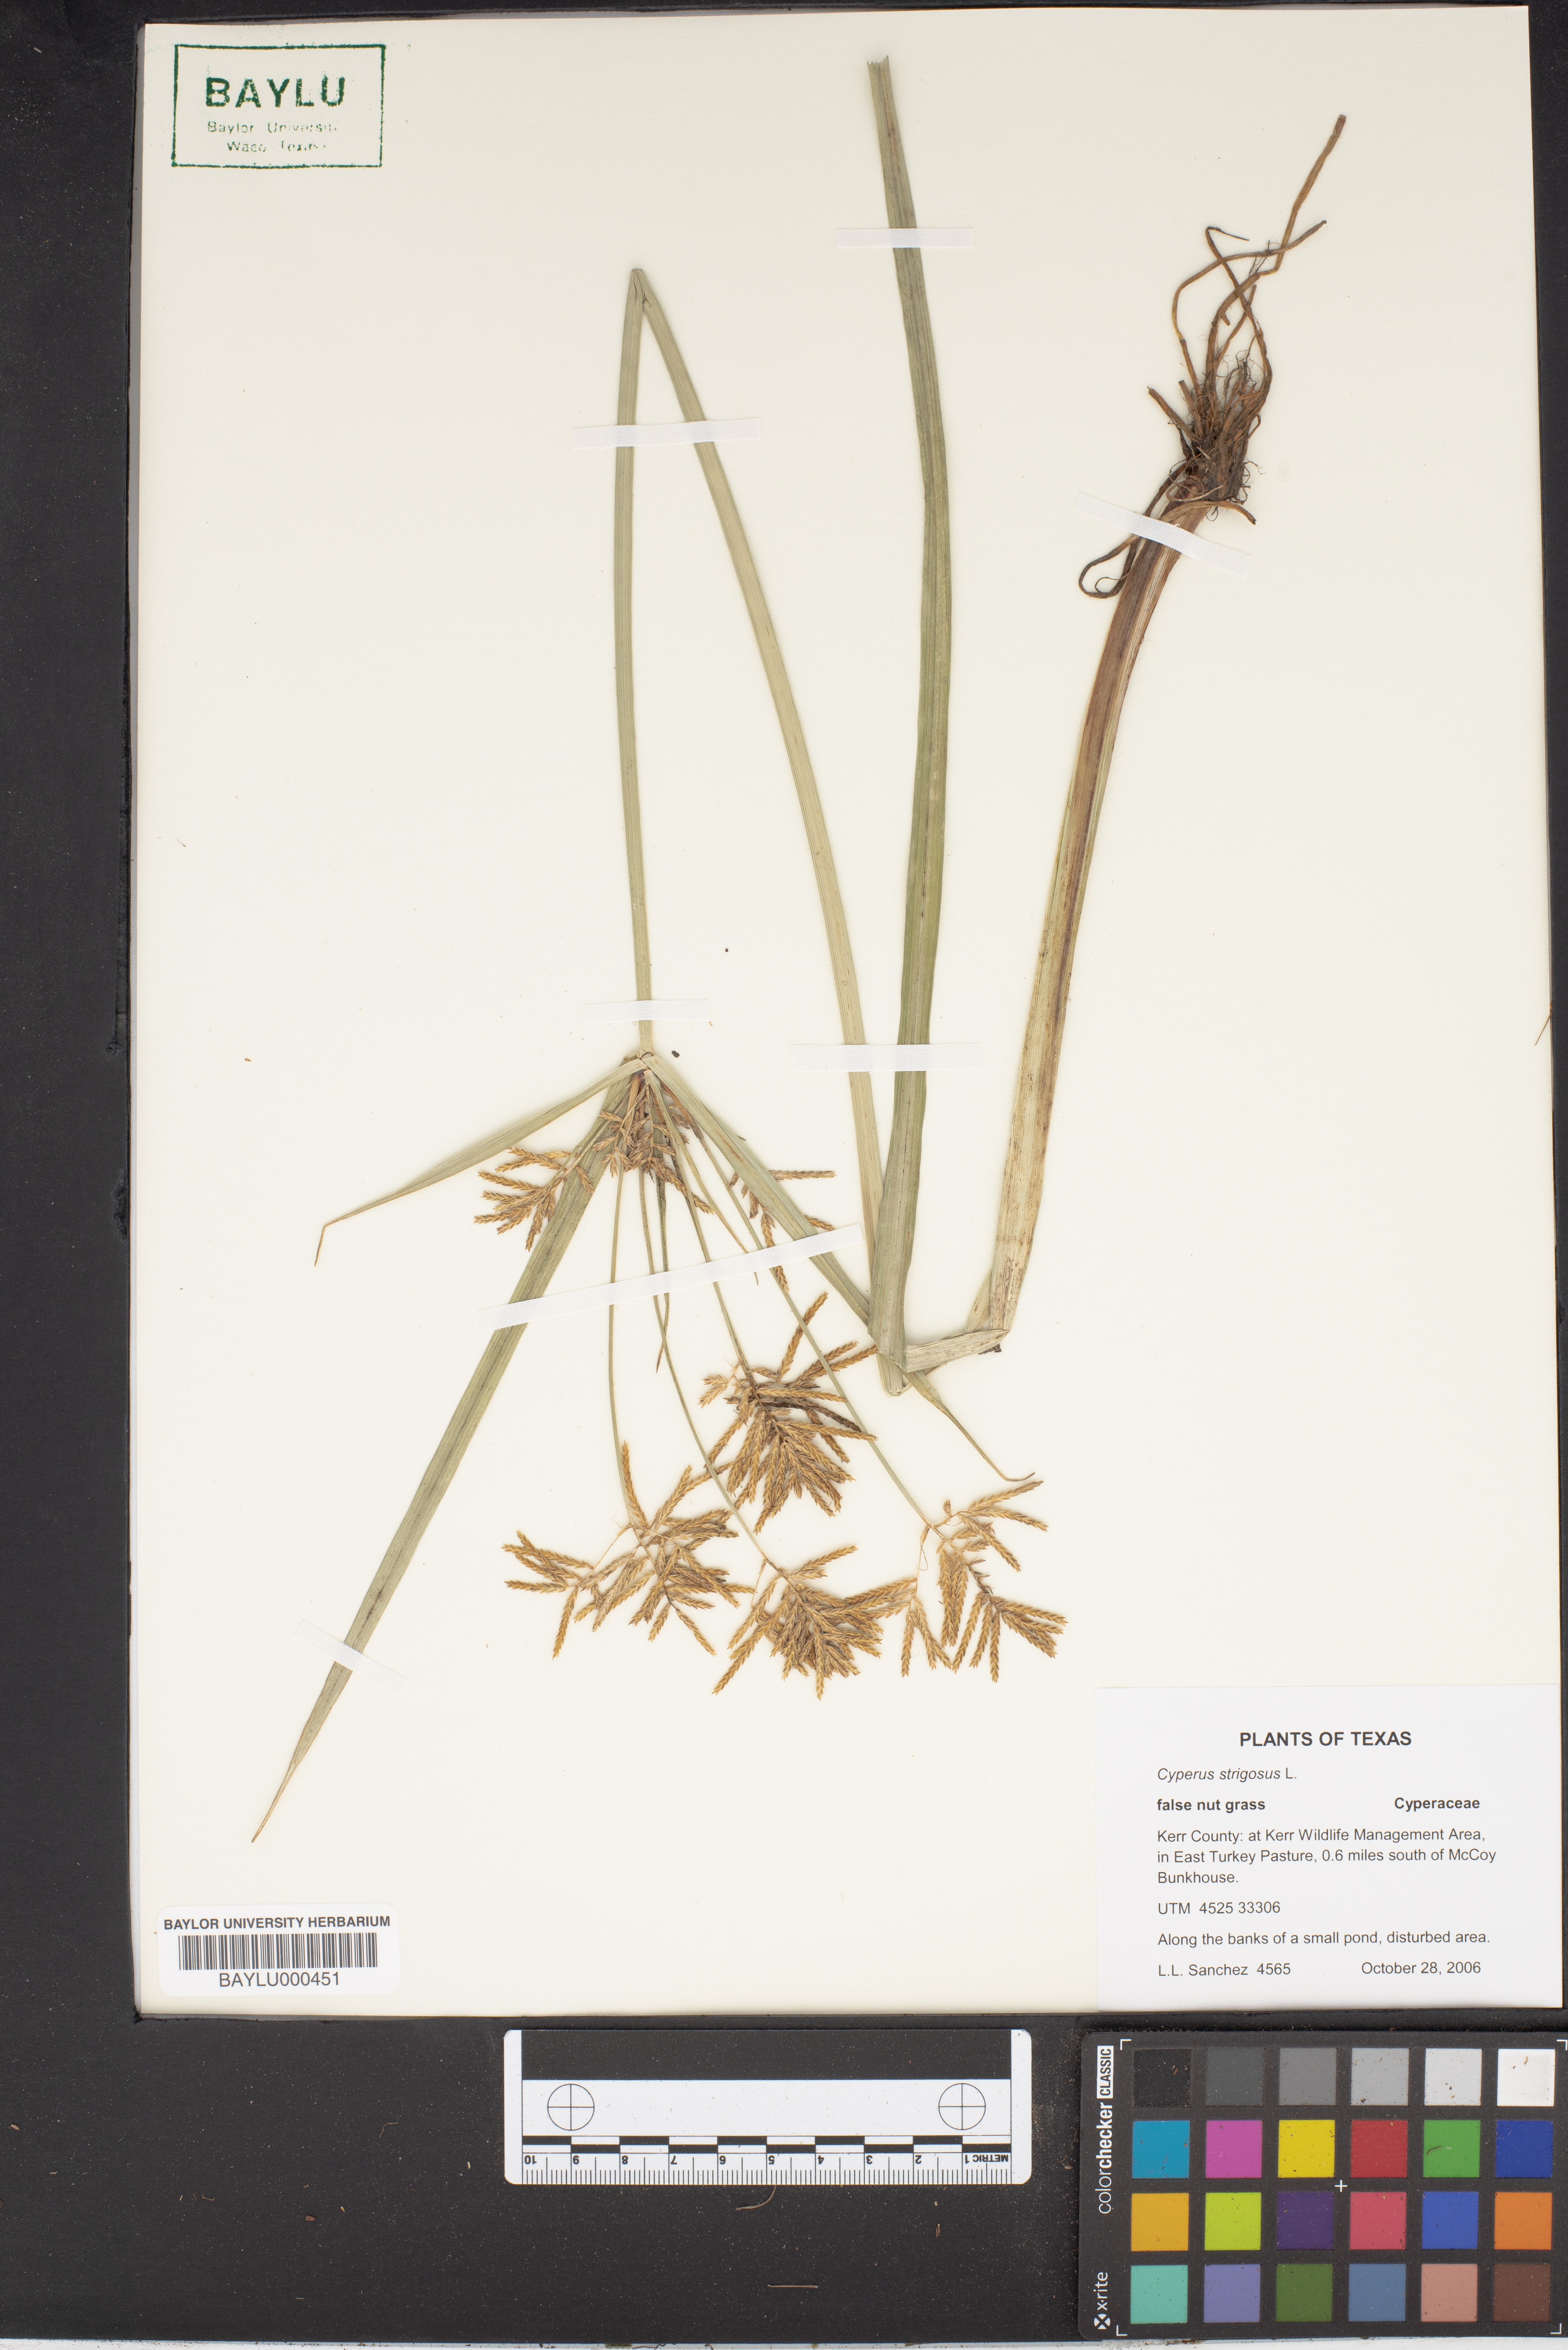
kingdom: Plantae
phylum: Tracheophyta
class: Liliopsida
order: Poales
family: Cyperaceae
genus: Cyperus
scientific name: Cyperus strigosus
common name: False nutsedge
